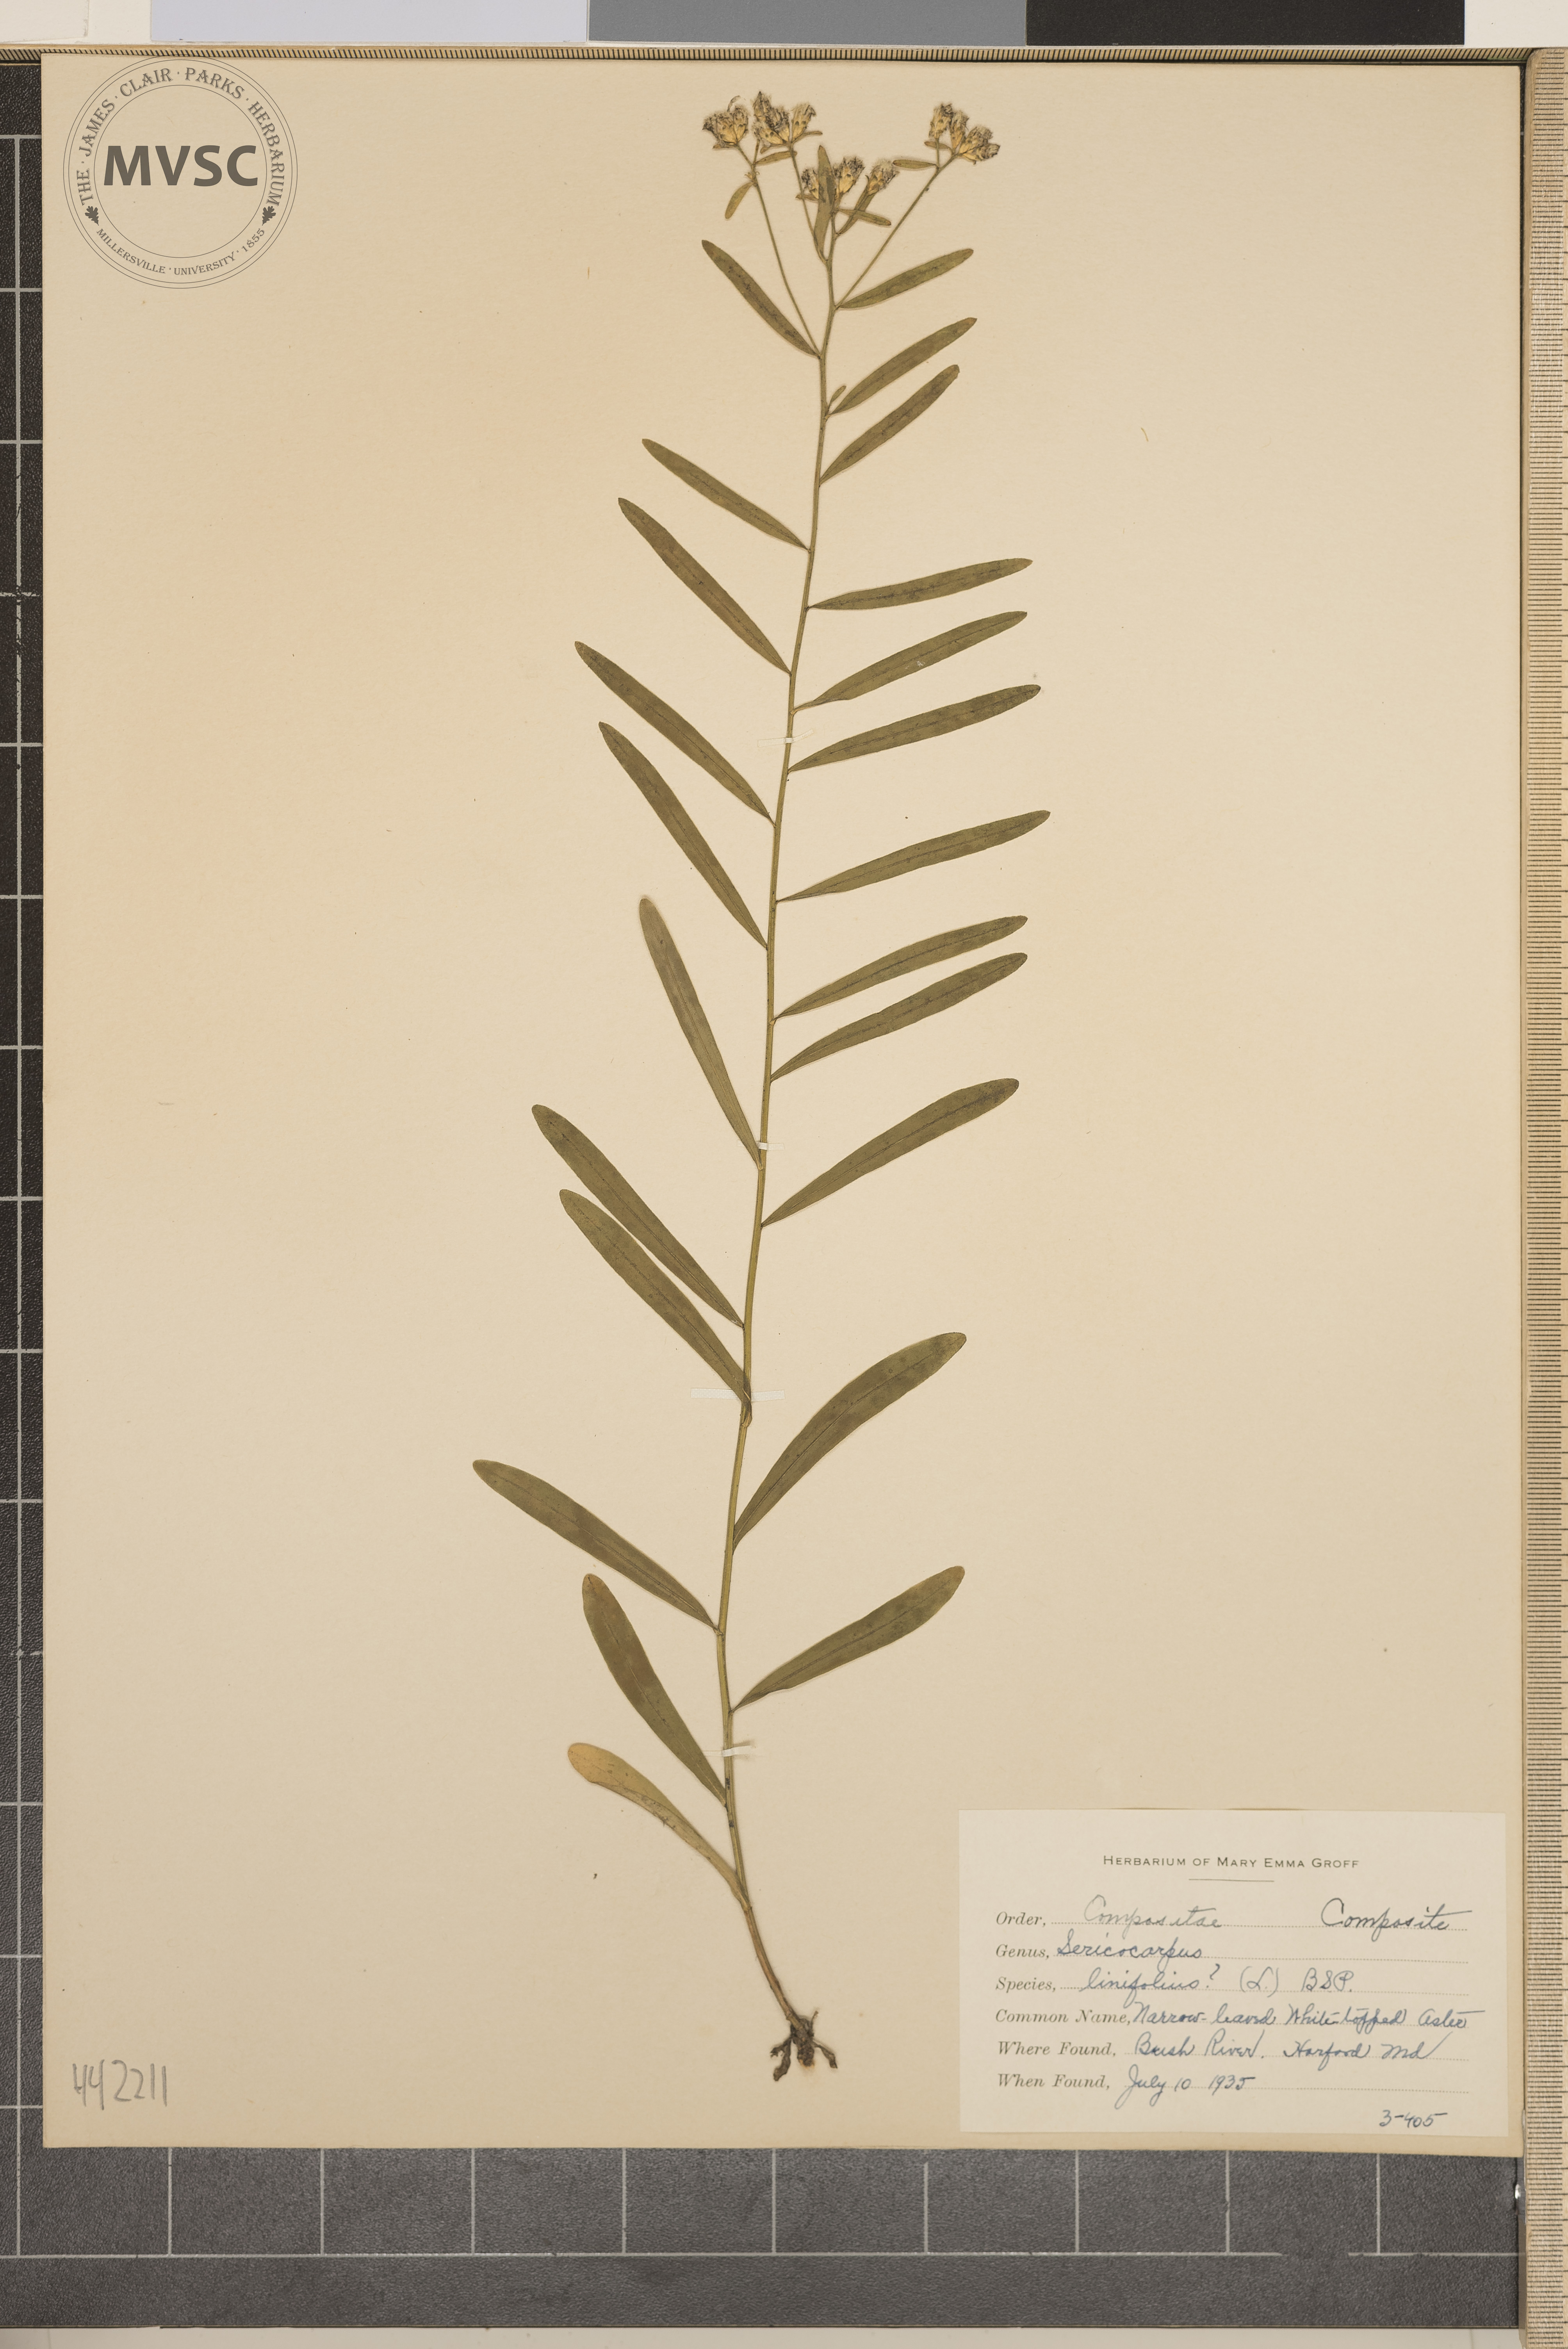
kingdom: Plantae
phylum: Tracheophyta
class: Magnoliopsida
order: Asterales
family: Asteraceae
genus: Sericocarpus
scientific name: Sericocarpus linifolius
